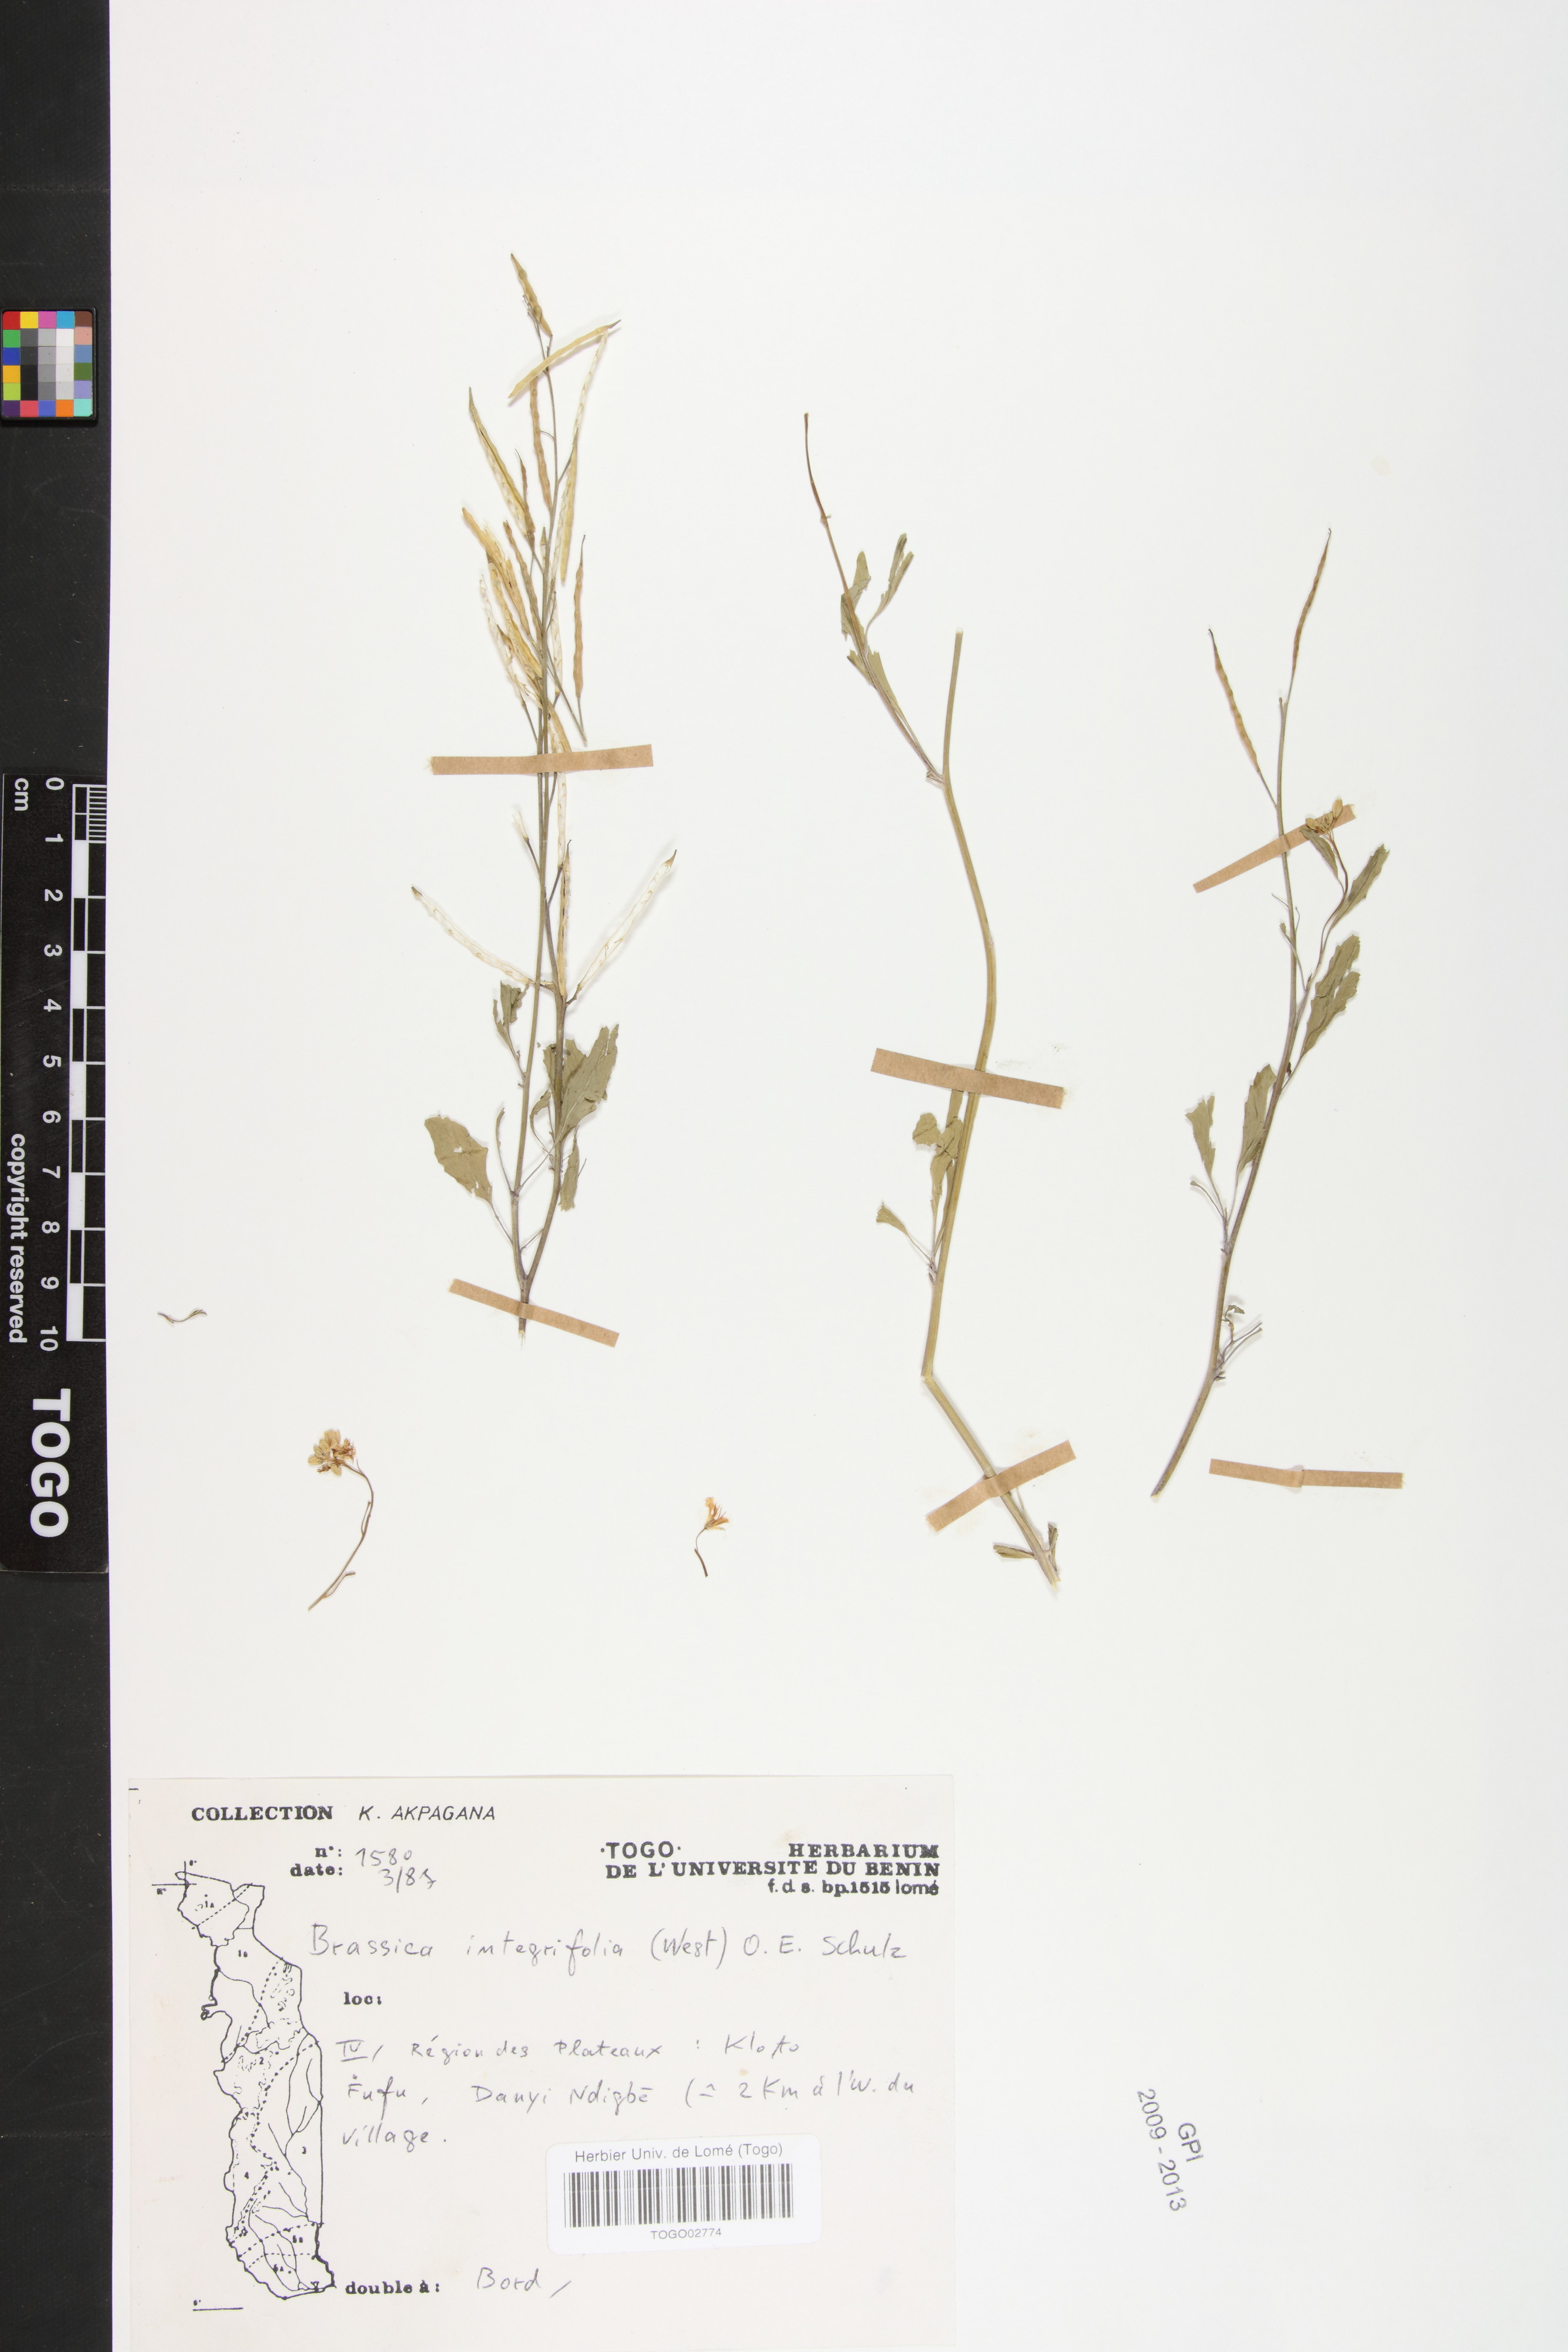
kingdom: Plantae
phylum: Tracheophyta
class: Magnoliopsida
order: Brassicales
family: Brassicaceae
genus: Brassica
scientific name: Brassica juncea
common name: Brown mustard
